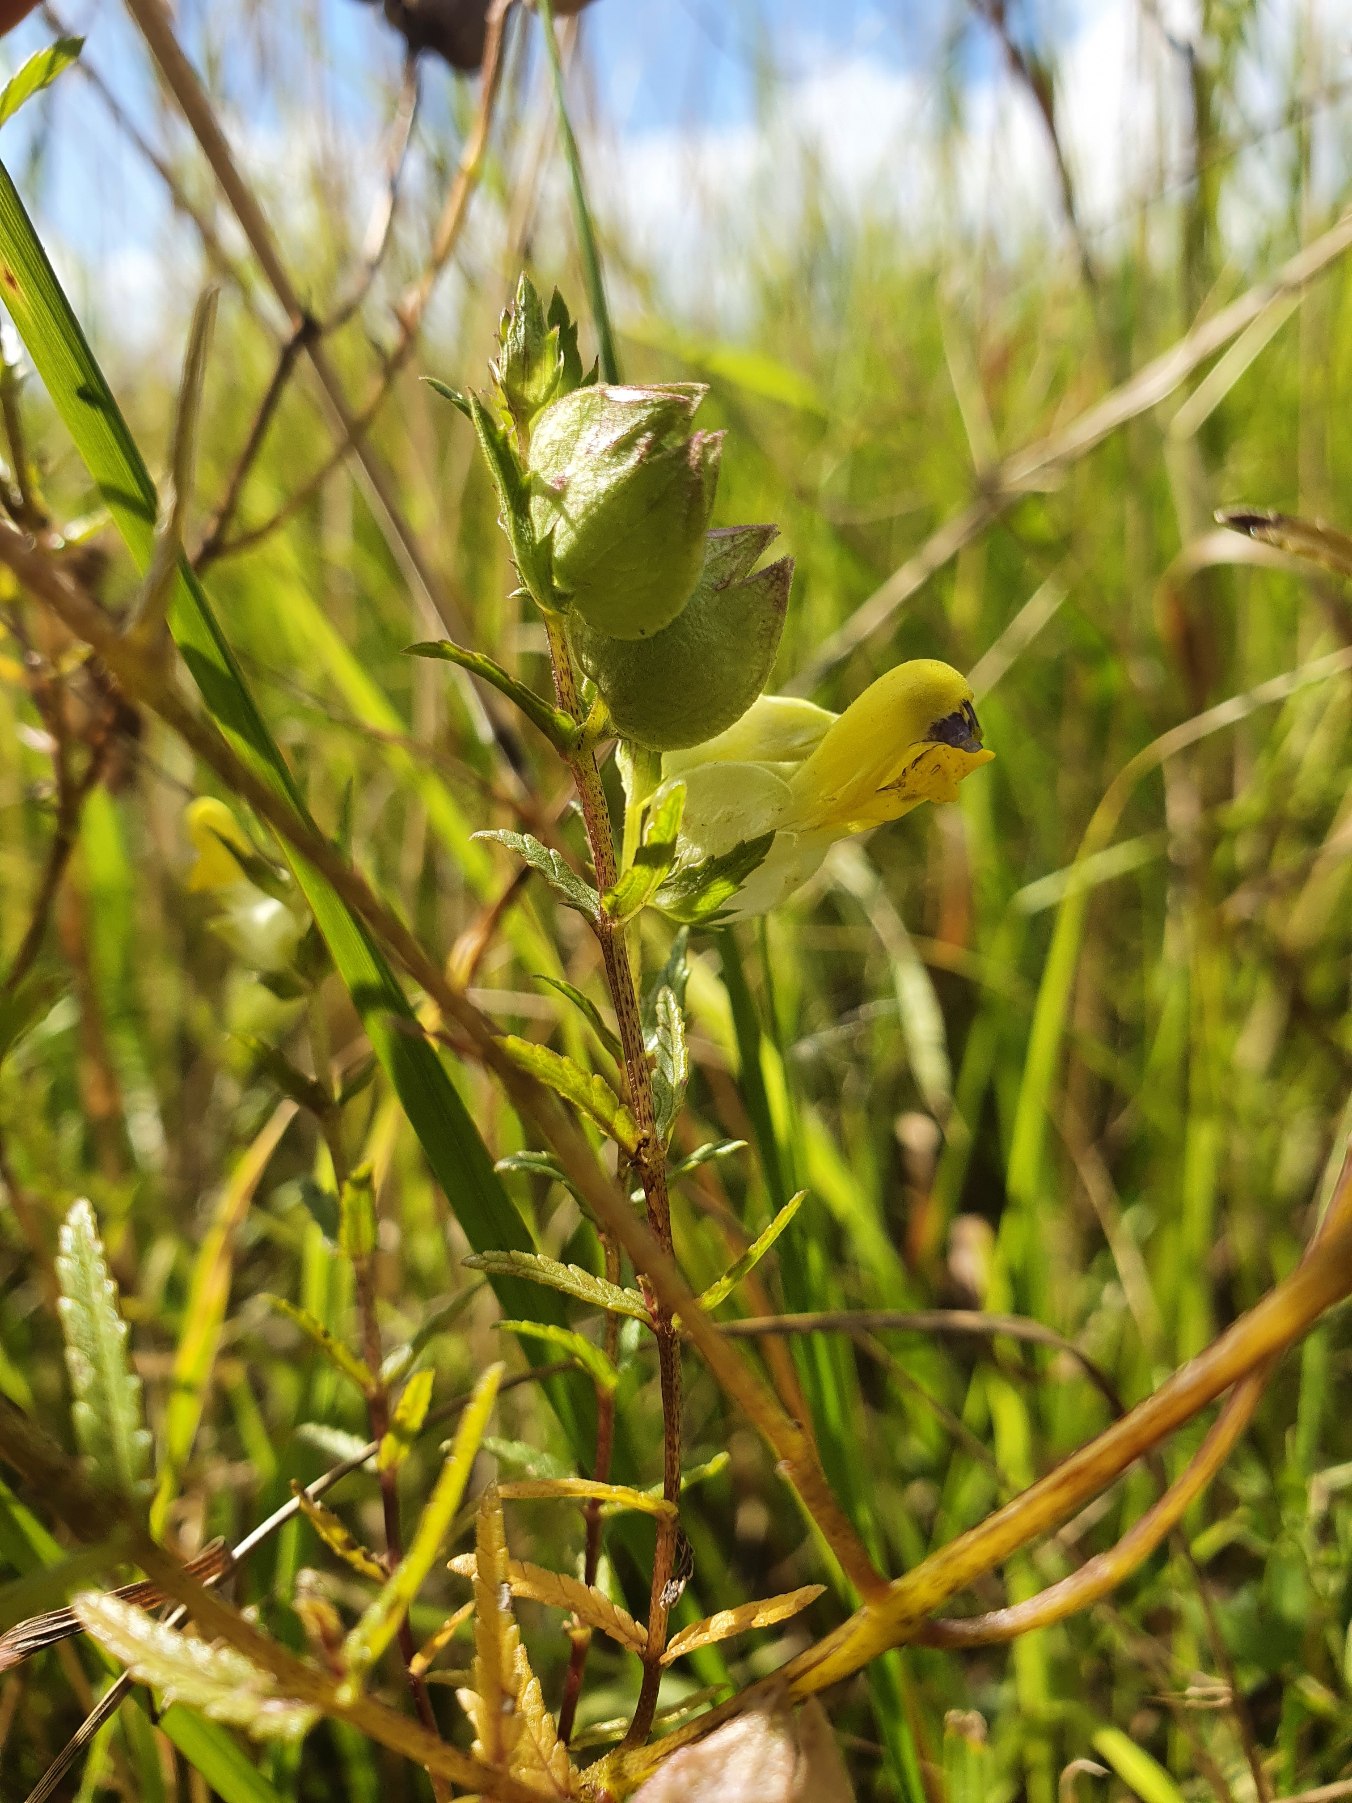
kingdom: Plantae
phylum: Tracheophyta
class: Magnoliopsida
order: Lamiales
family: Orobanchaceae
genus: Rhinanthus
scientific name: Rhinanthus
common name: Stor skjaller
